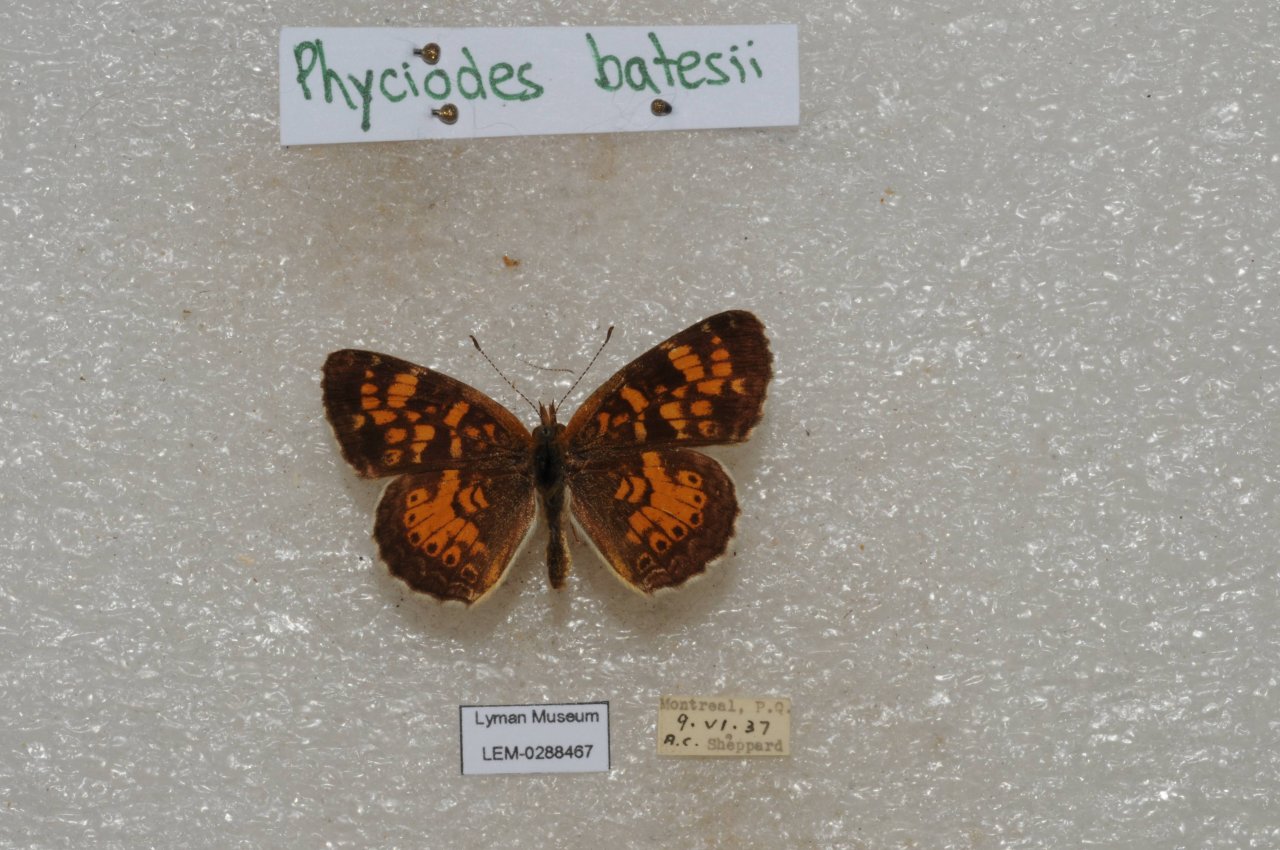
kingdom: Animalia
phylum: Arthropoda
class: Insecta
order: Lepidoptera
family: Nymphalidae
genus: Phyciodes
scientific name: Phyciodes tharos
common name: Northern Crescent
